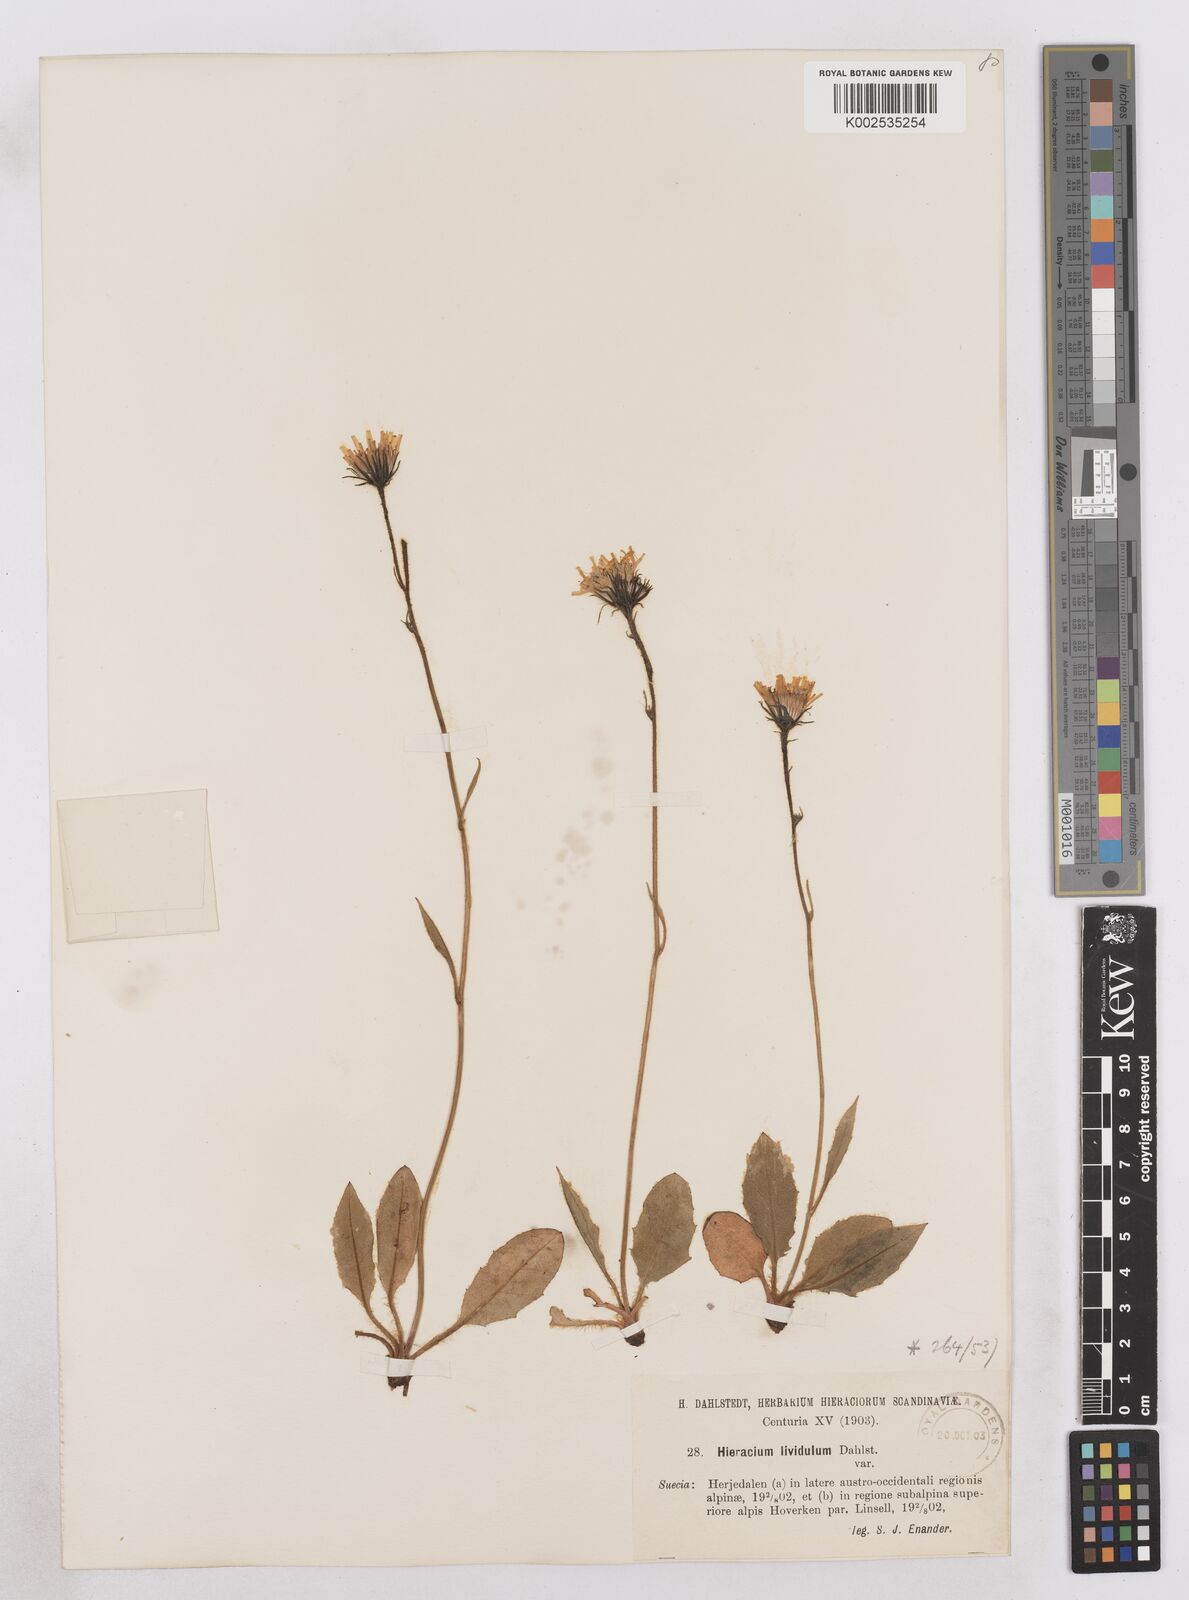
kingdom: Plantae
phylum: Tracheophyta
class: Magnoliopsida
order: Asterales
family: Asteraceae
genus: Hieracium
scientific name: Hieracium lividulifolium
